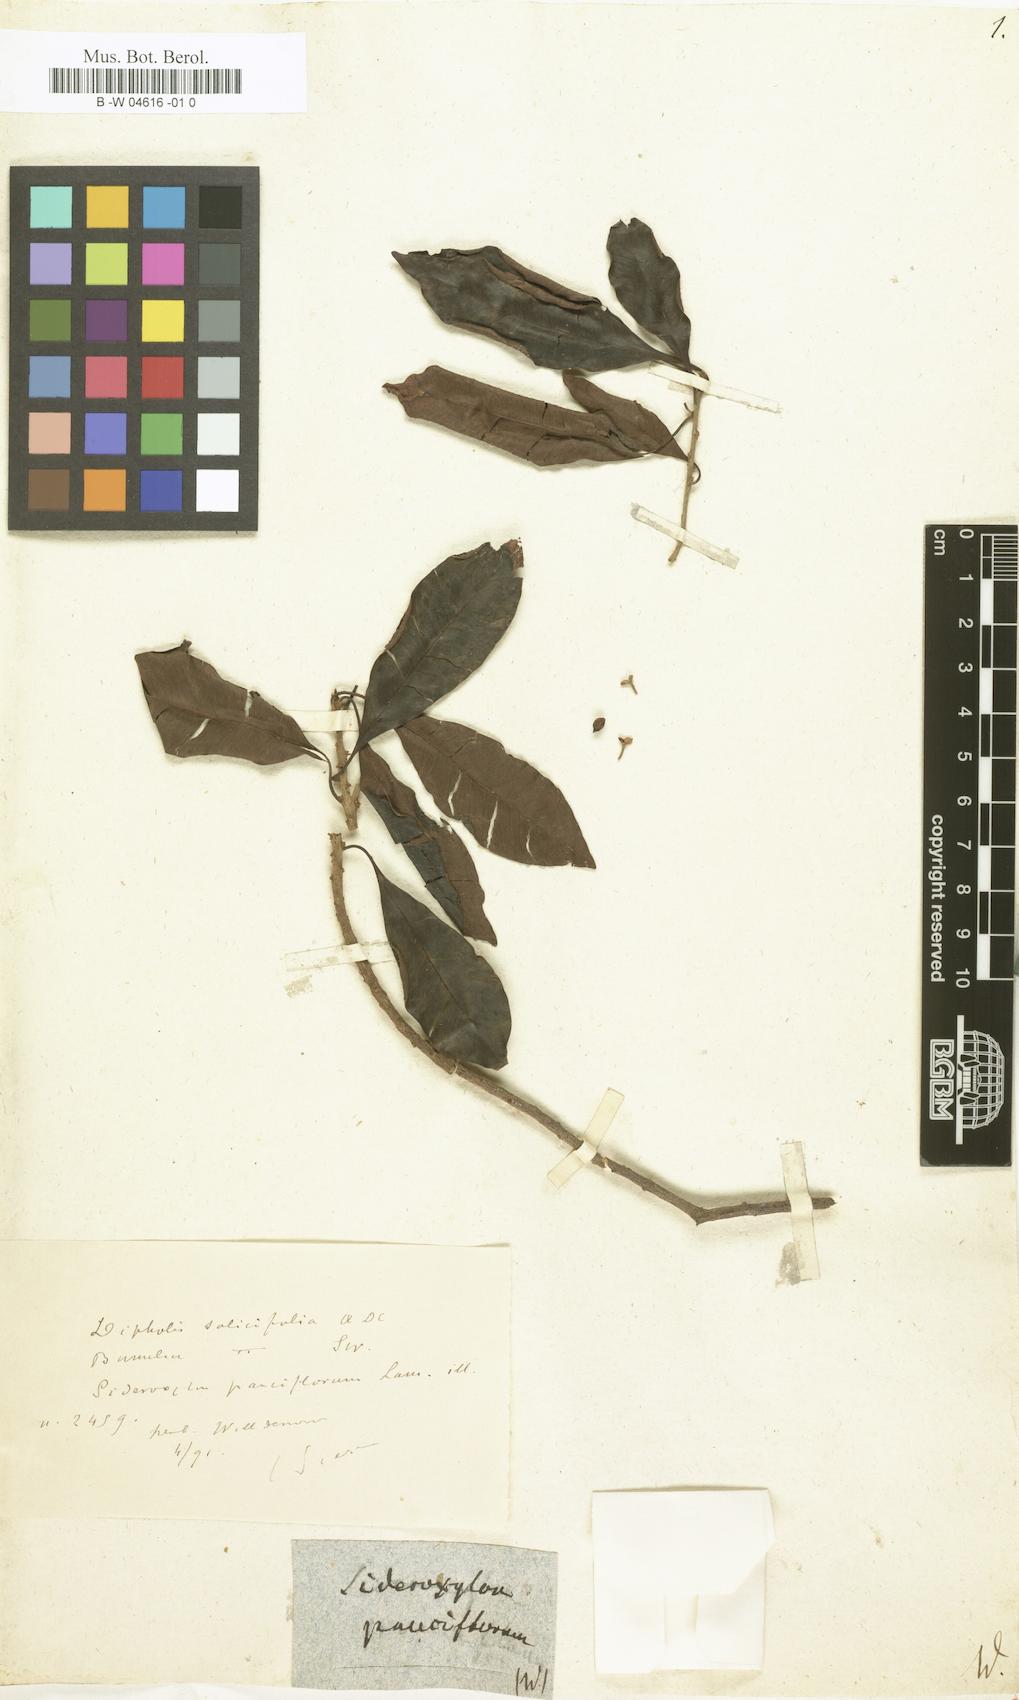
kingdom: Plantae
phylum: Tracheophyta
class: Magnoliopsida
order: Ericales
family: Sapotaceae
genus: Sideroxylon
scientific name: Sideroxylon
